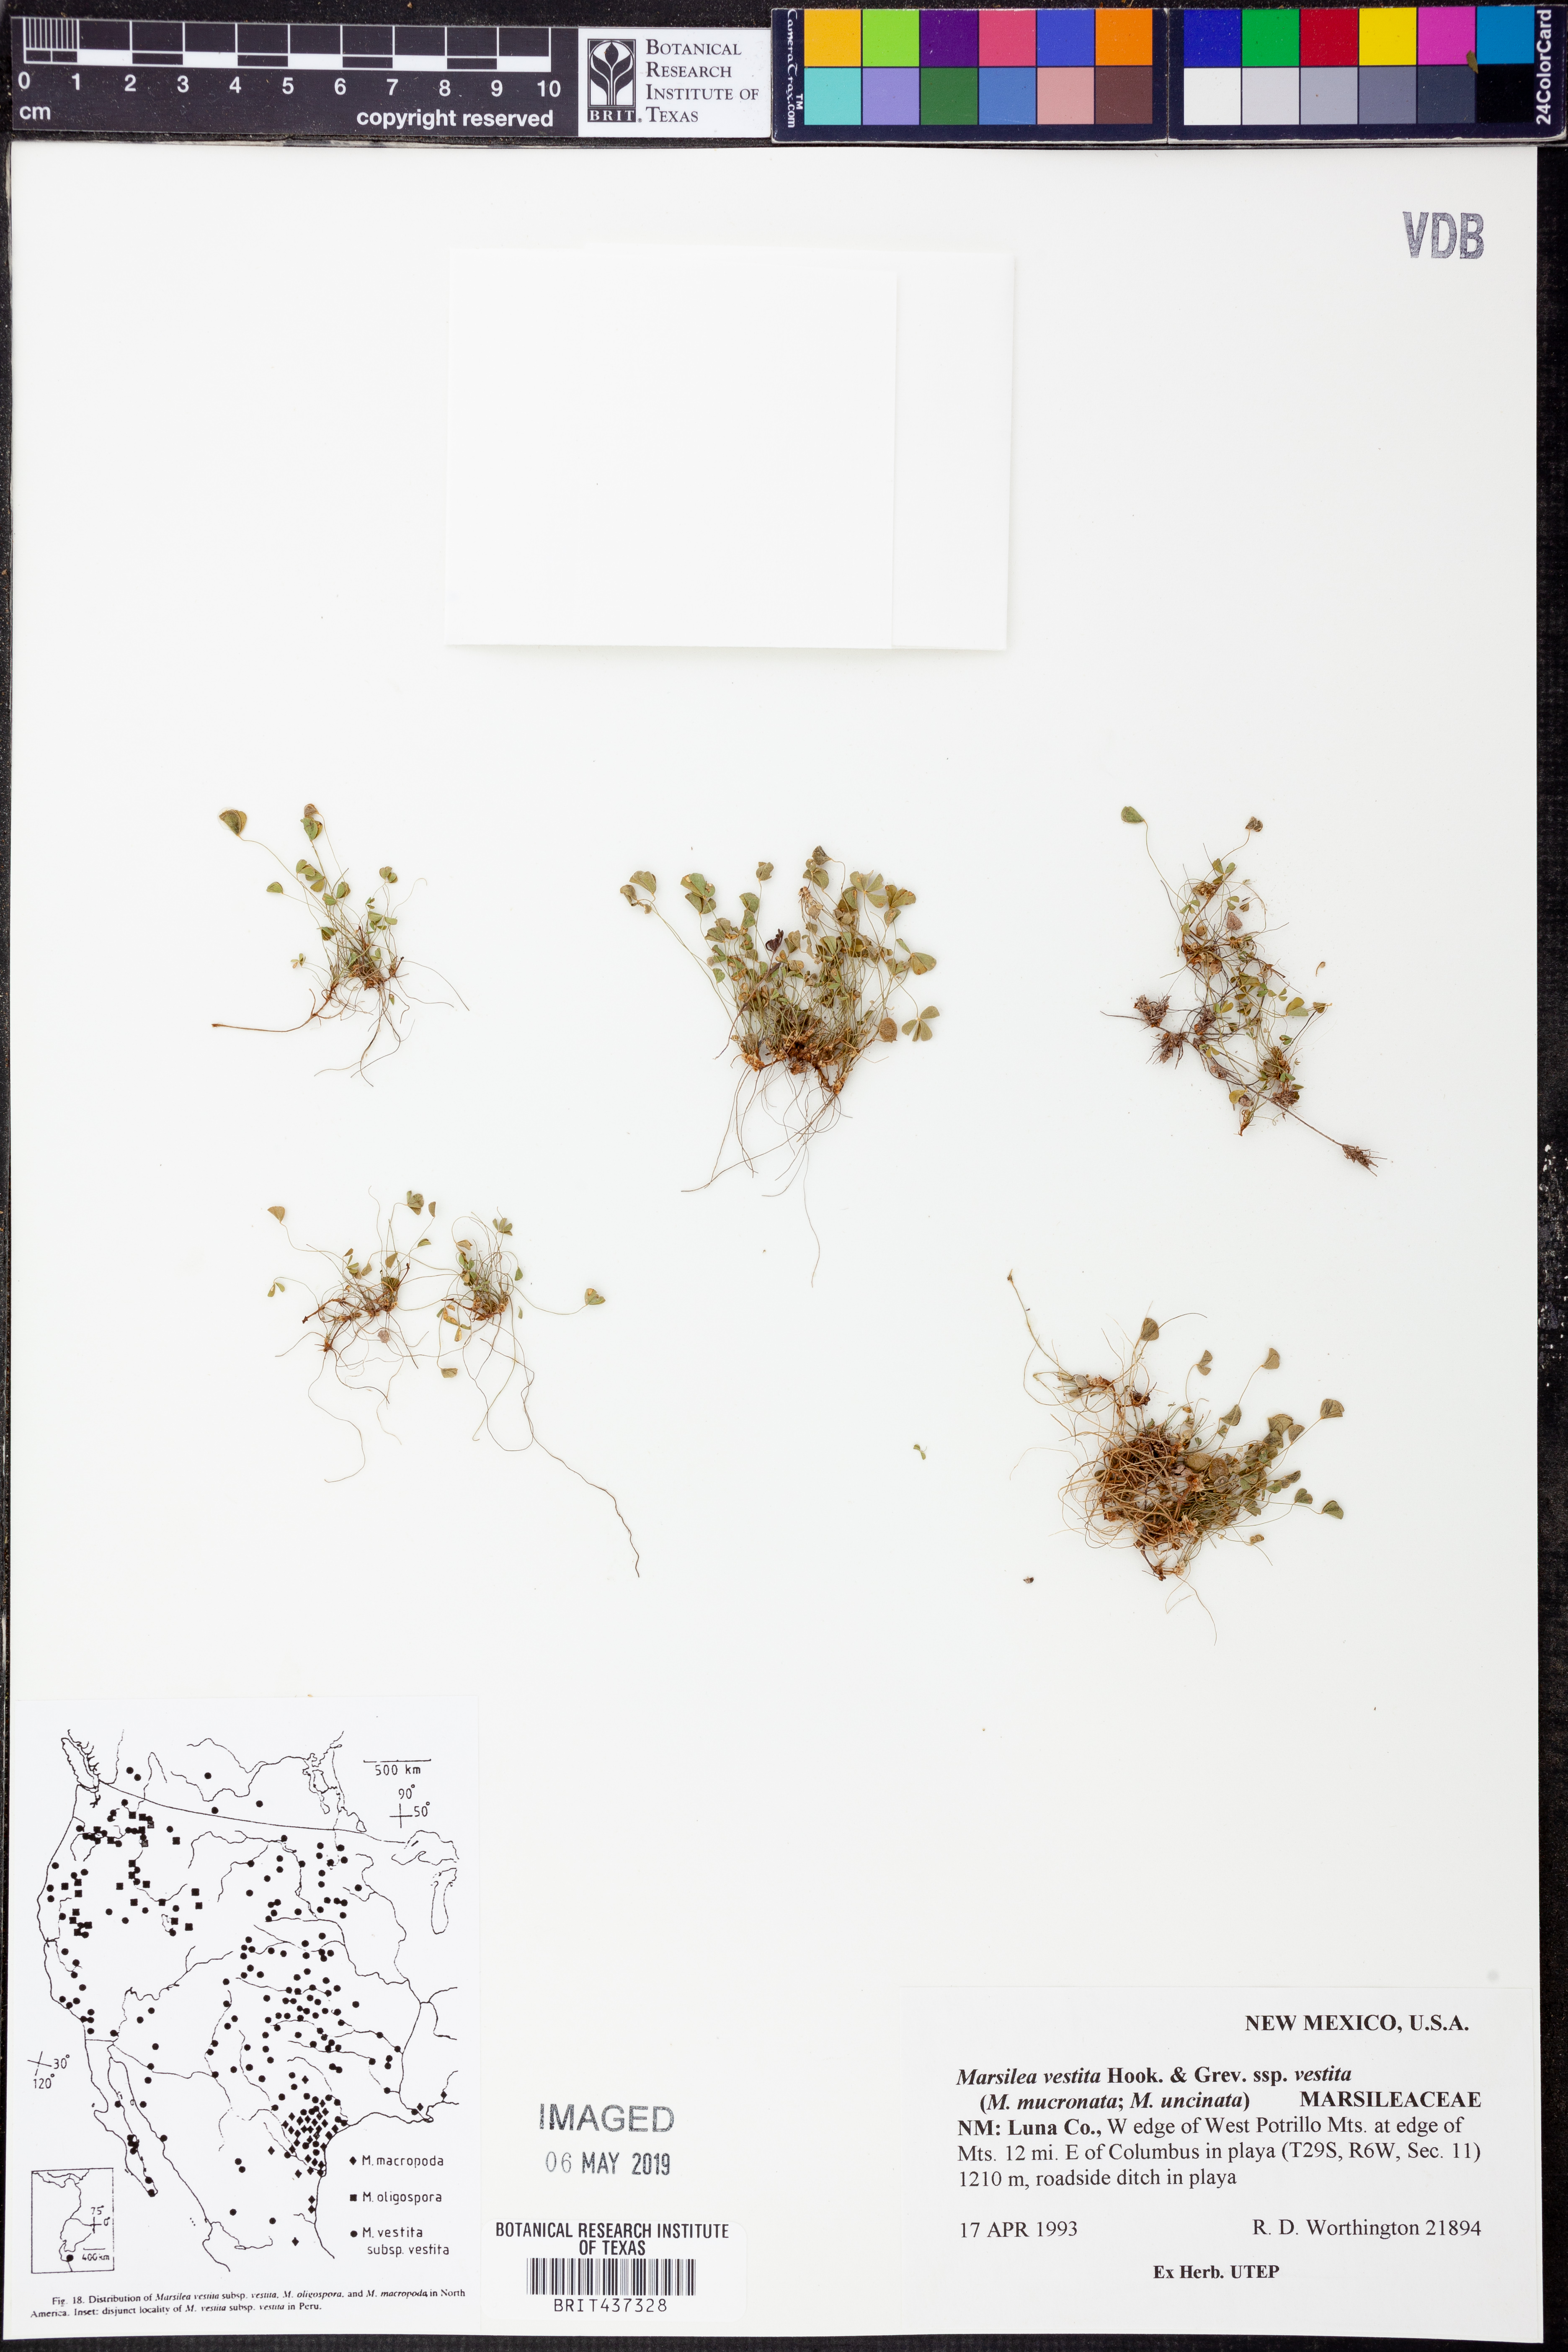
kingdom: Plantae
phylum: Tracheophyta
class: Polypodiopsida
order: Salviniales
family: Marsileaceae
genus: Marsilea
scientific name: Marsilea vestita
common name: Hooked-pepperwort
